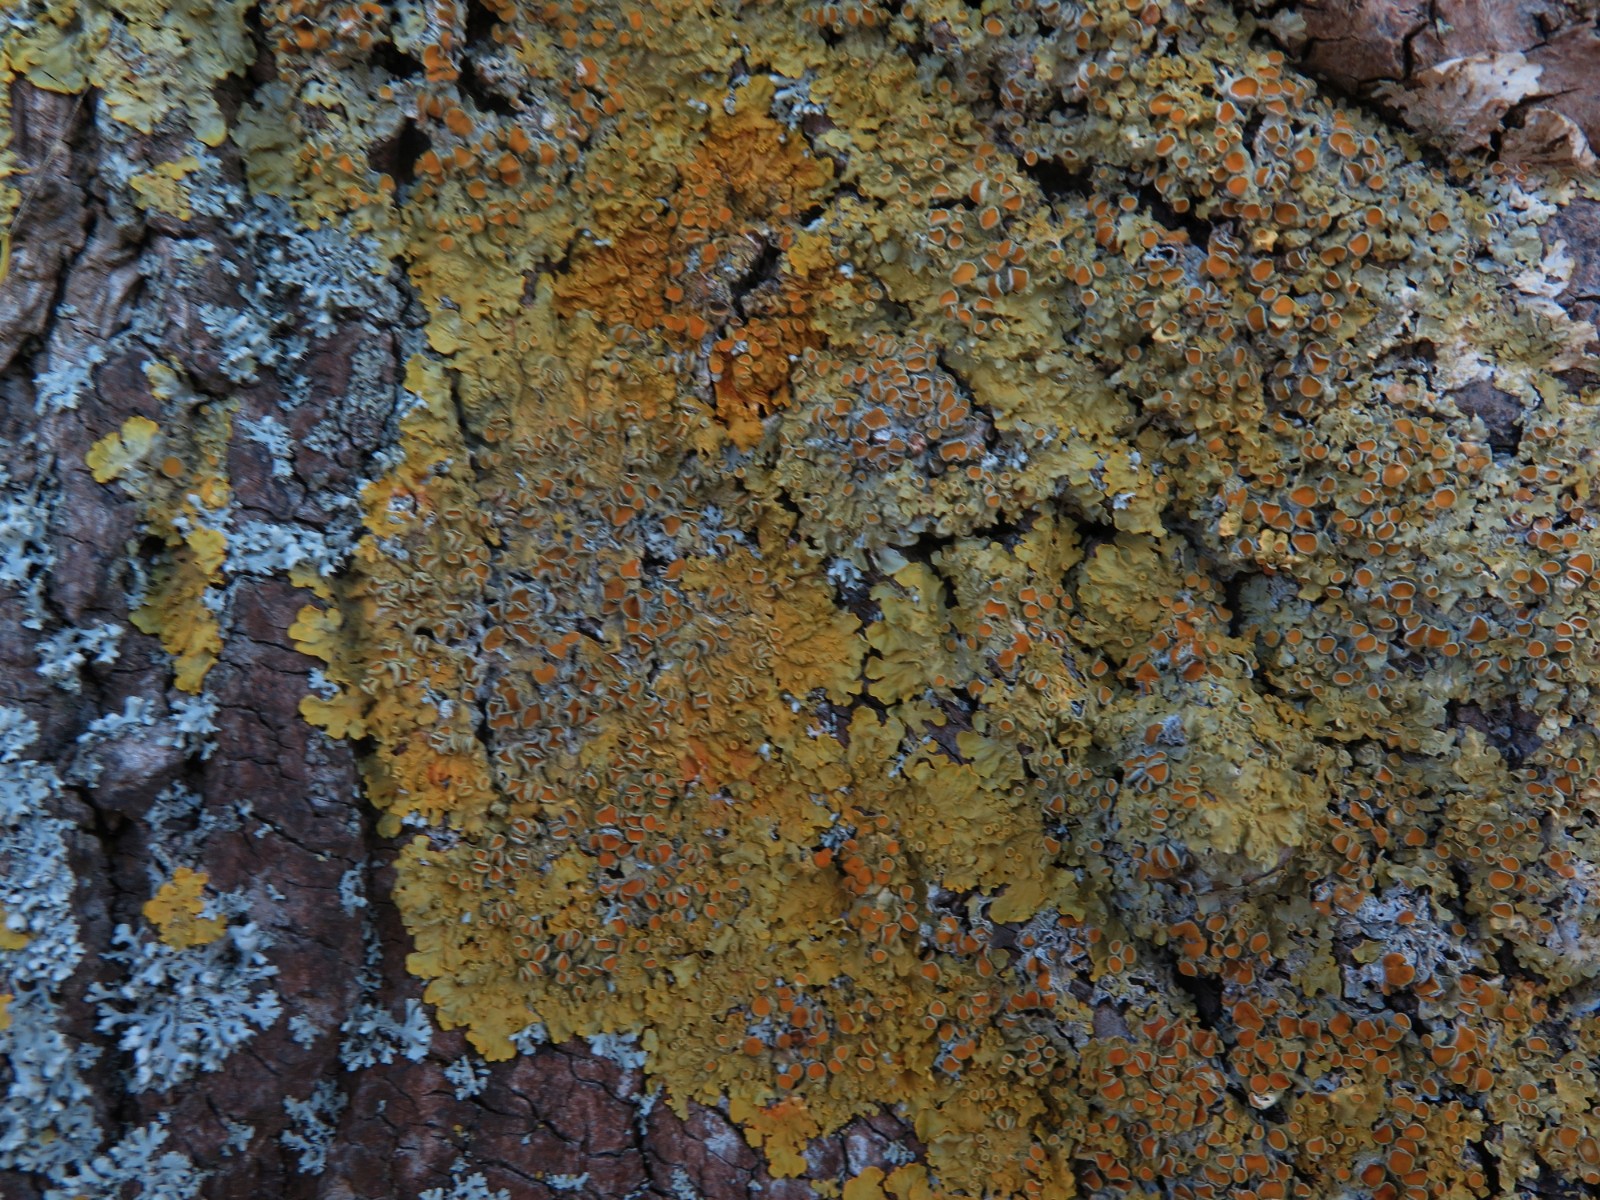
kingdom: Fungi
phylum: Ascomycota
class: Lecanoromycetes
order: Teloschistales
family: Teloschistaceae
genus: Xanthoria
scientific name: Xanthoria parietina
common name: almindelig væggelav
